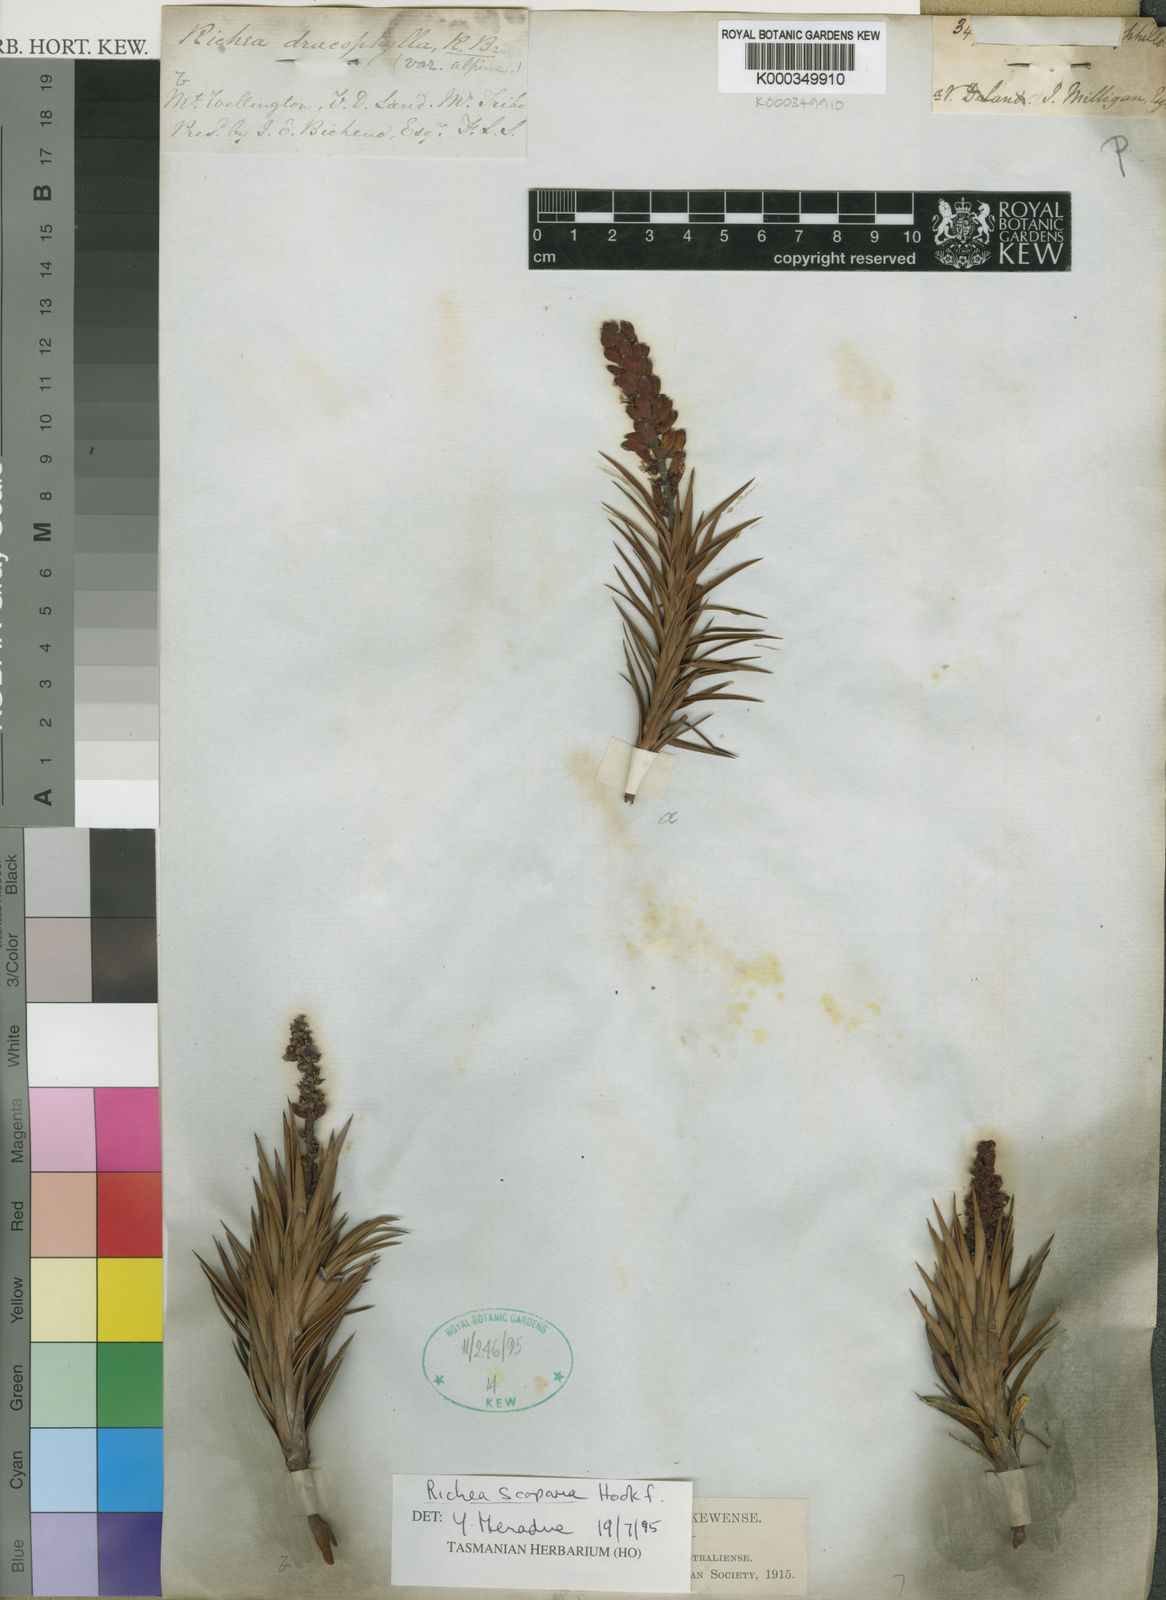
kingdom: Plantae
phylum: Tracheophyta
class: Magnoliopsida
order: Ericales
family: Ericaceae
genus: Dracophyllum
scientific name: Dracophyllum persistentifolium
